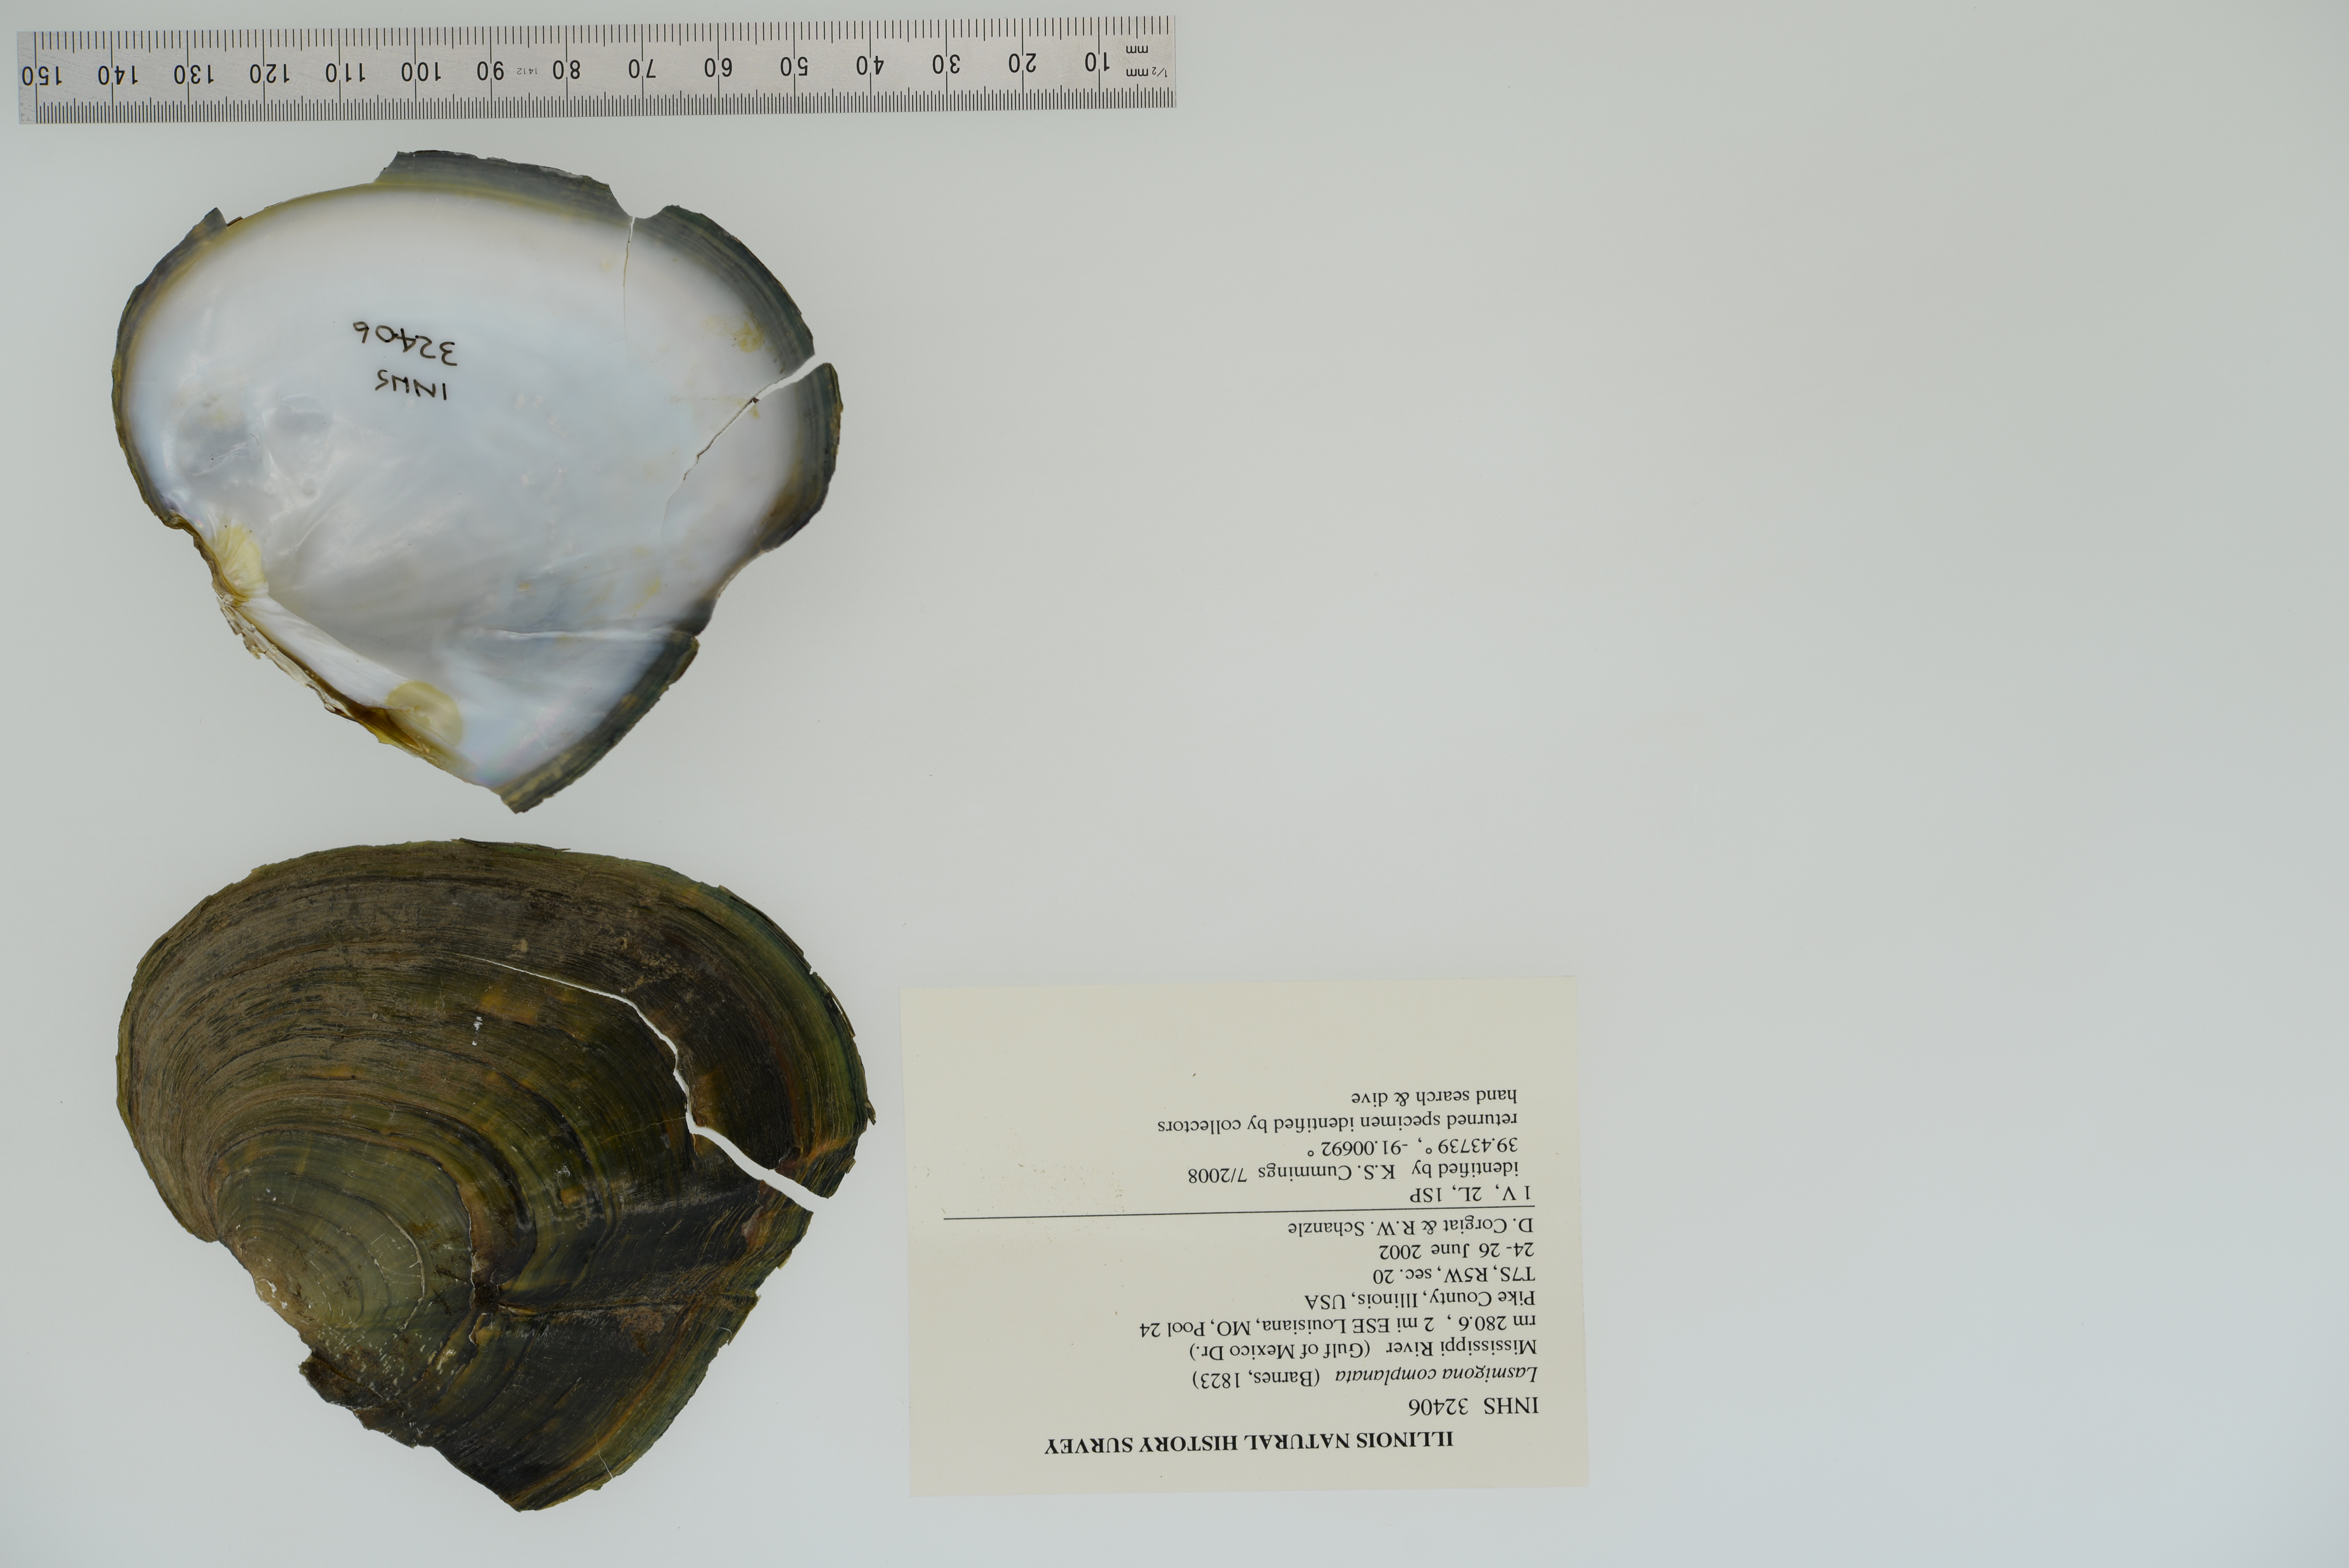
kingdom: Animalia
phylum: Mollusca
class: Bivalvia
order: Unionida
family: Unionidae
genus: Lasmigona
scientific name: Lasmigona complanata
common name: White heelsplitter
